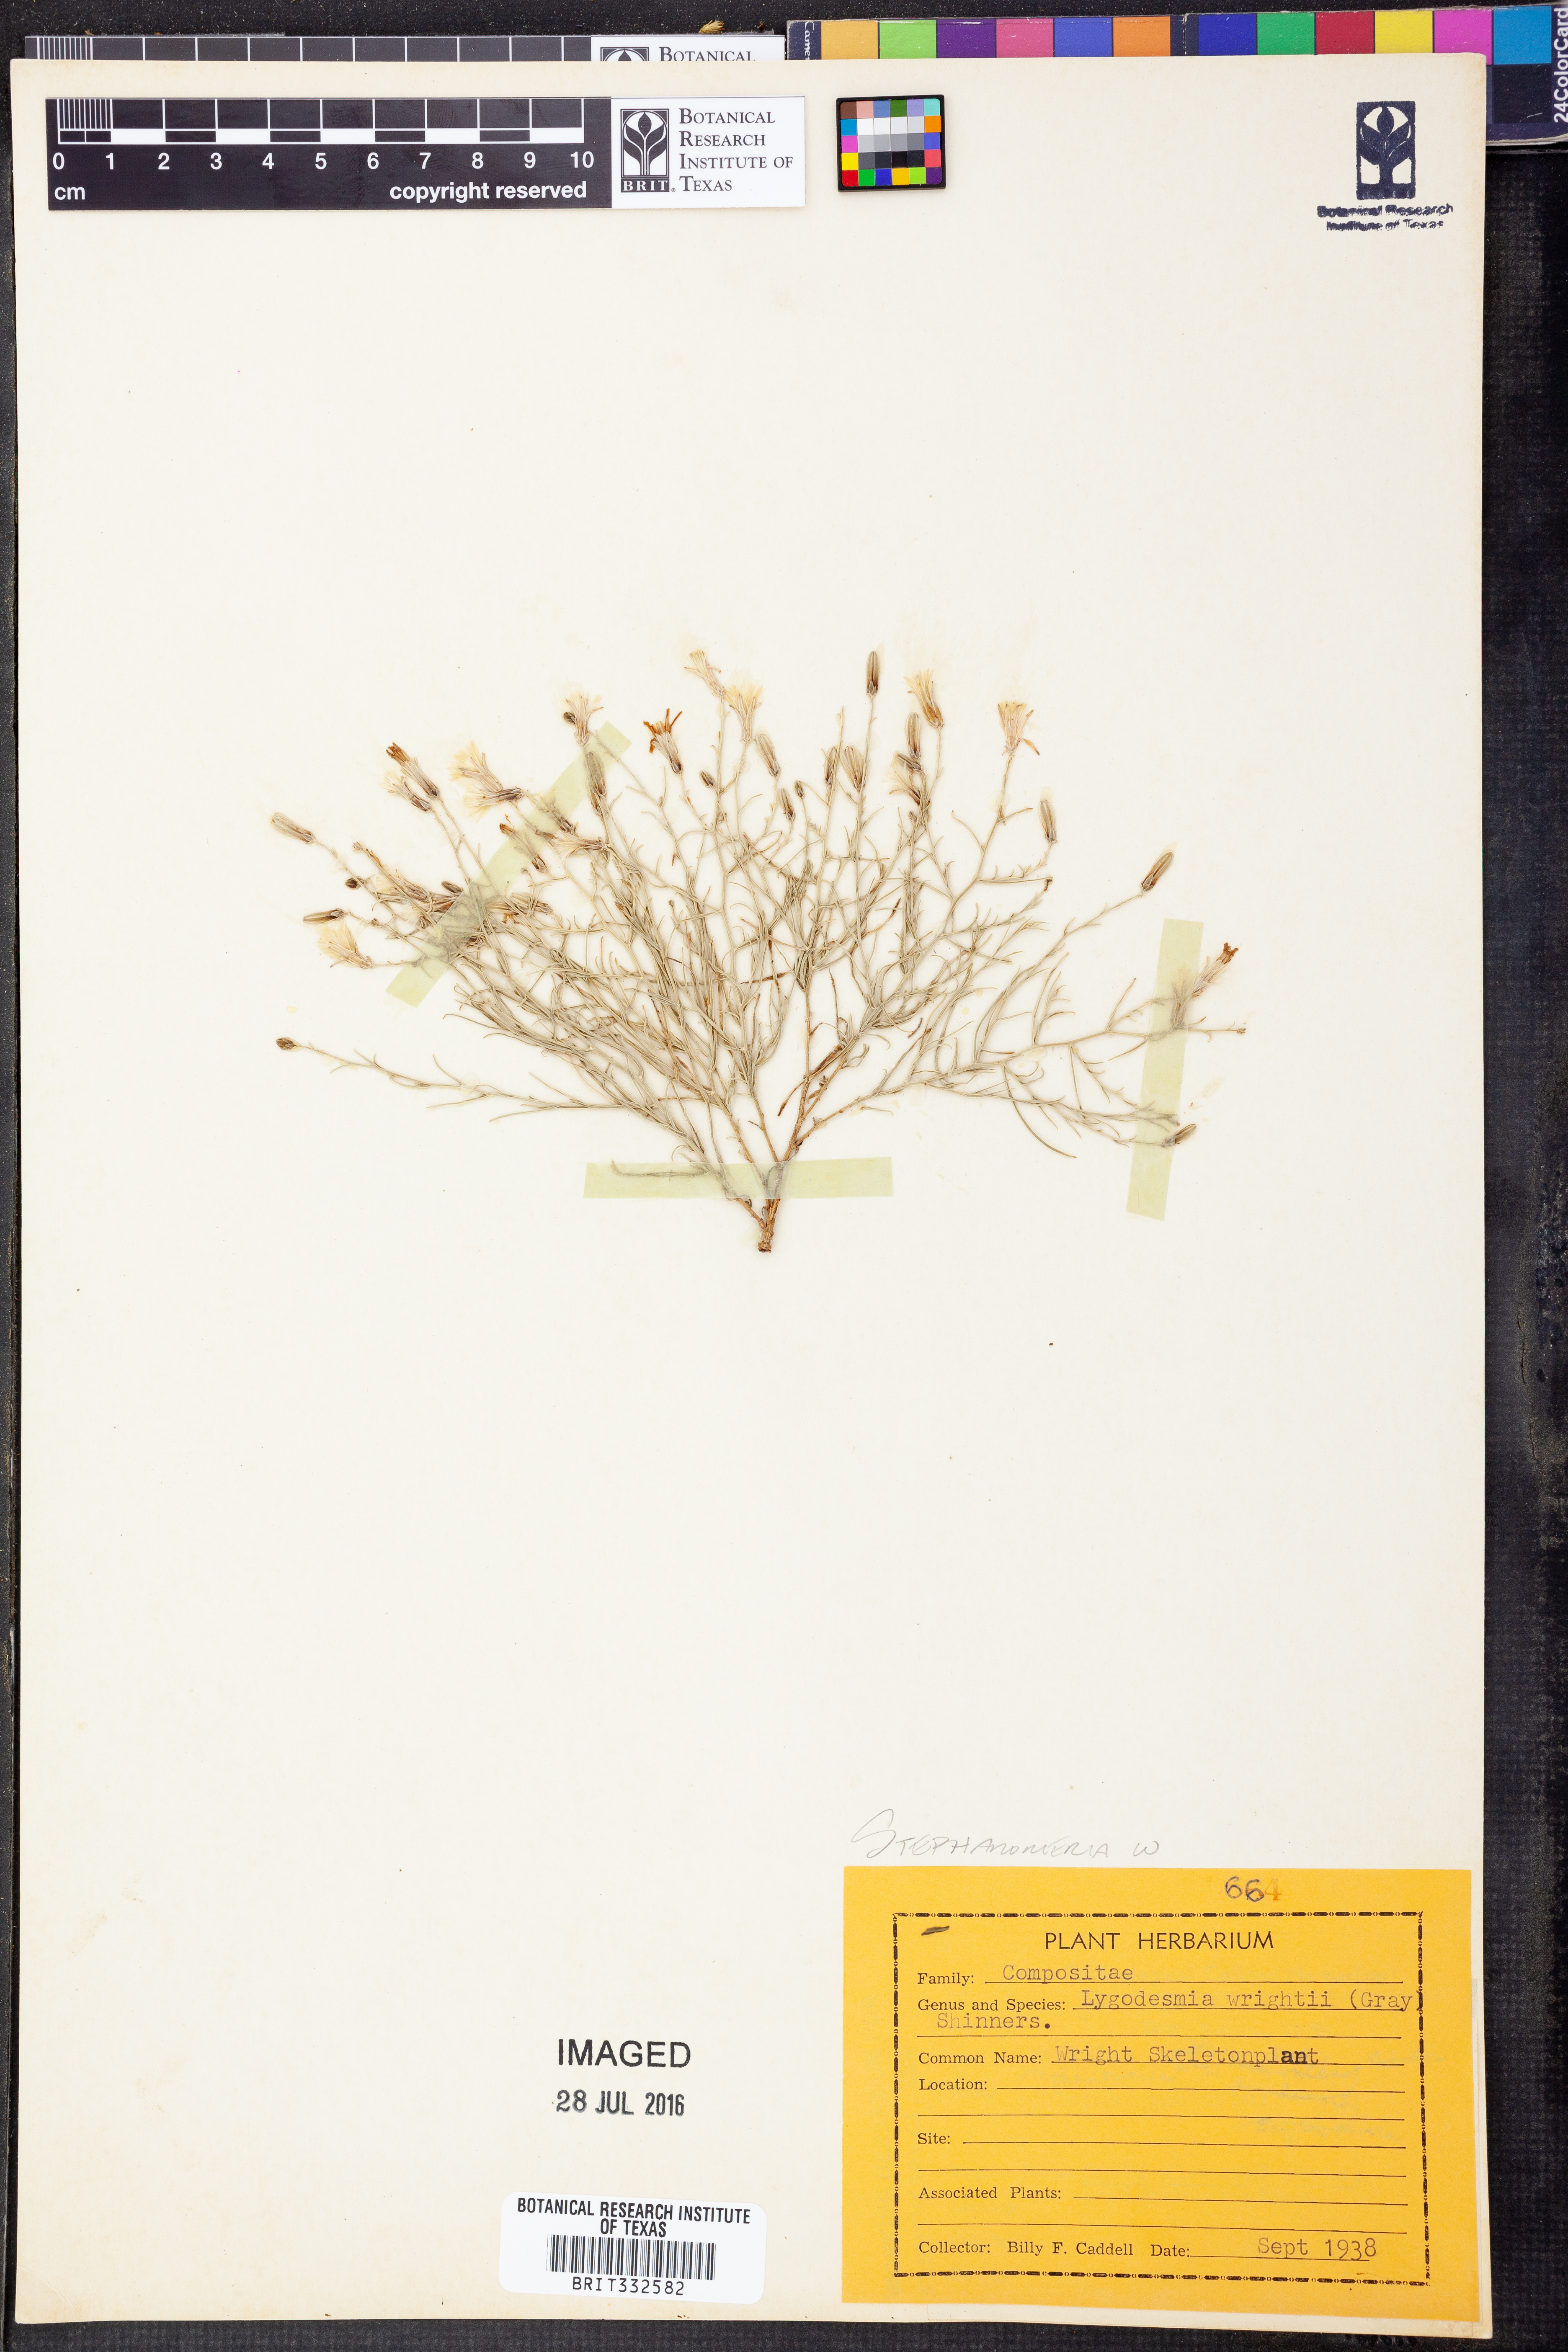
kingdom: Plantae
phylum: Tracheophyta
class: Magnoliopsida
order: Asterales
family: Asteraceae
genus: Stephanomeria
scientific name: Stephanomeria tenuifolia
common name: Slender wirelettuce
